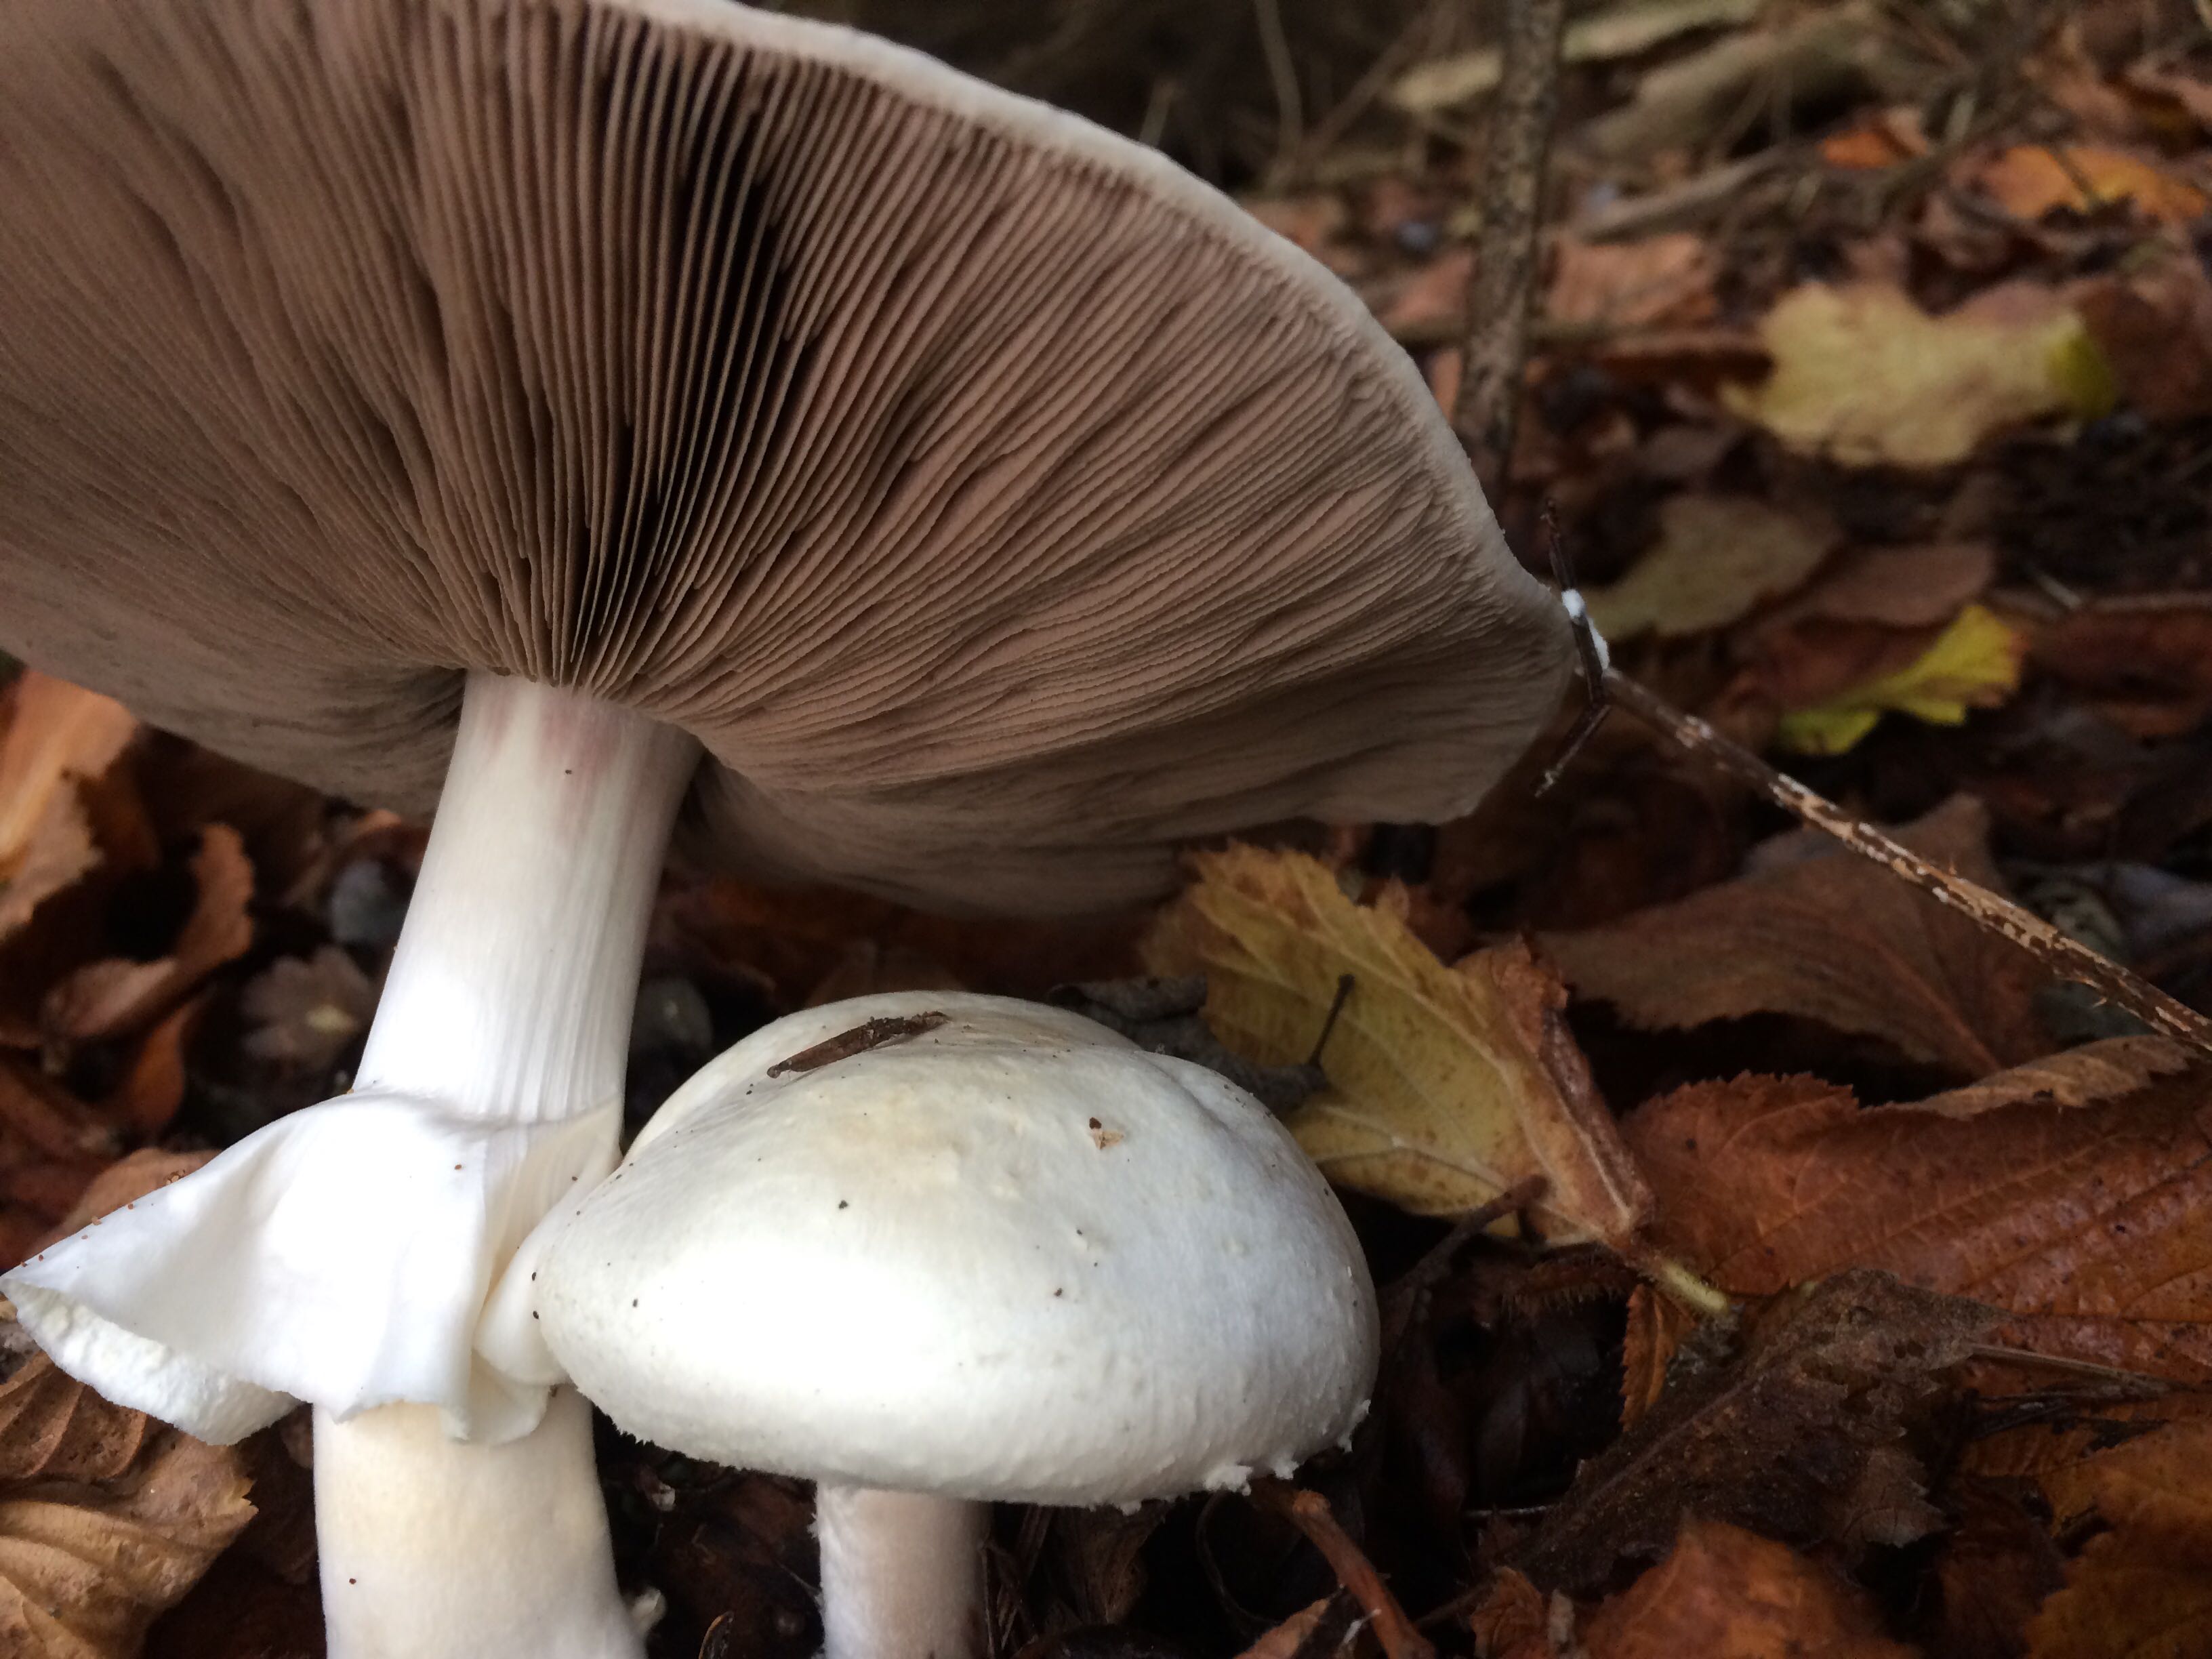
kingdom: Fungi
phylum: Basidiomycota
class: Agaricomycetes
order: Agaricales
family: Agaricaceae
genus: Agaricus
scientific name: Agaricus sylvicola
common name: gulhvid champignon
